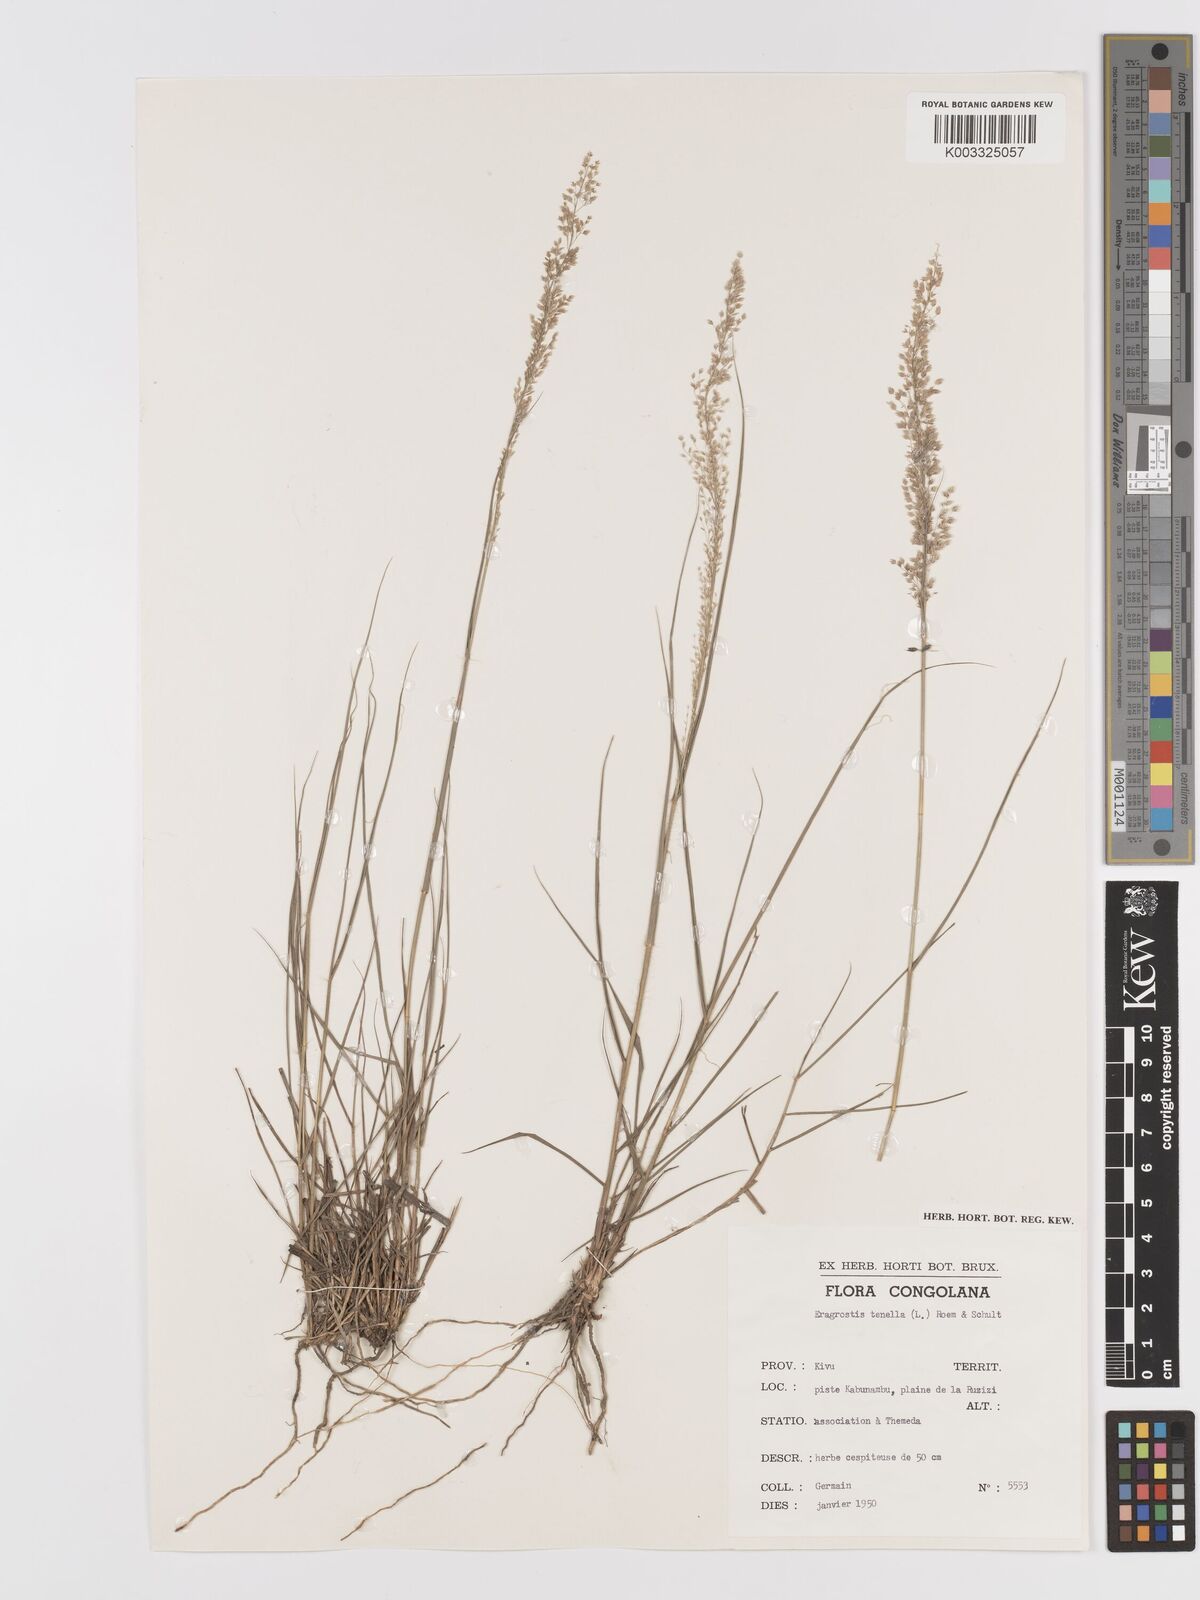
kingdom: Plantae
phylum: Tracheophyta
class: Liliopsida
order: Poales
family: Poaceae
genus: Eragrostis
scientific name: Eragrostis caespitosa
